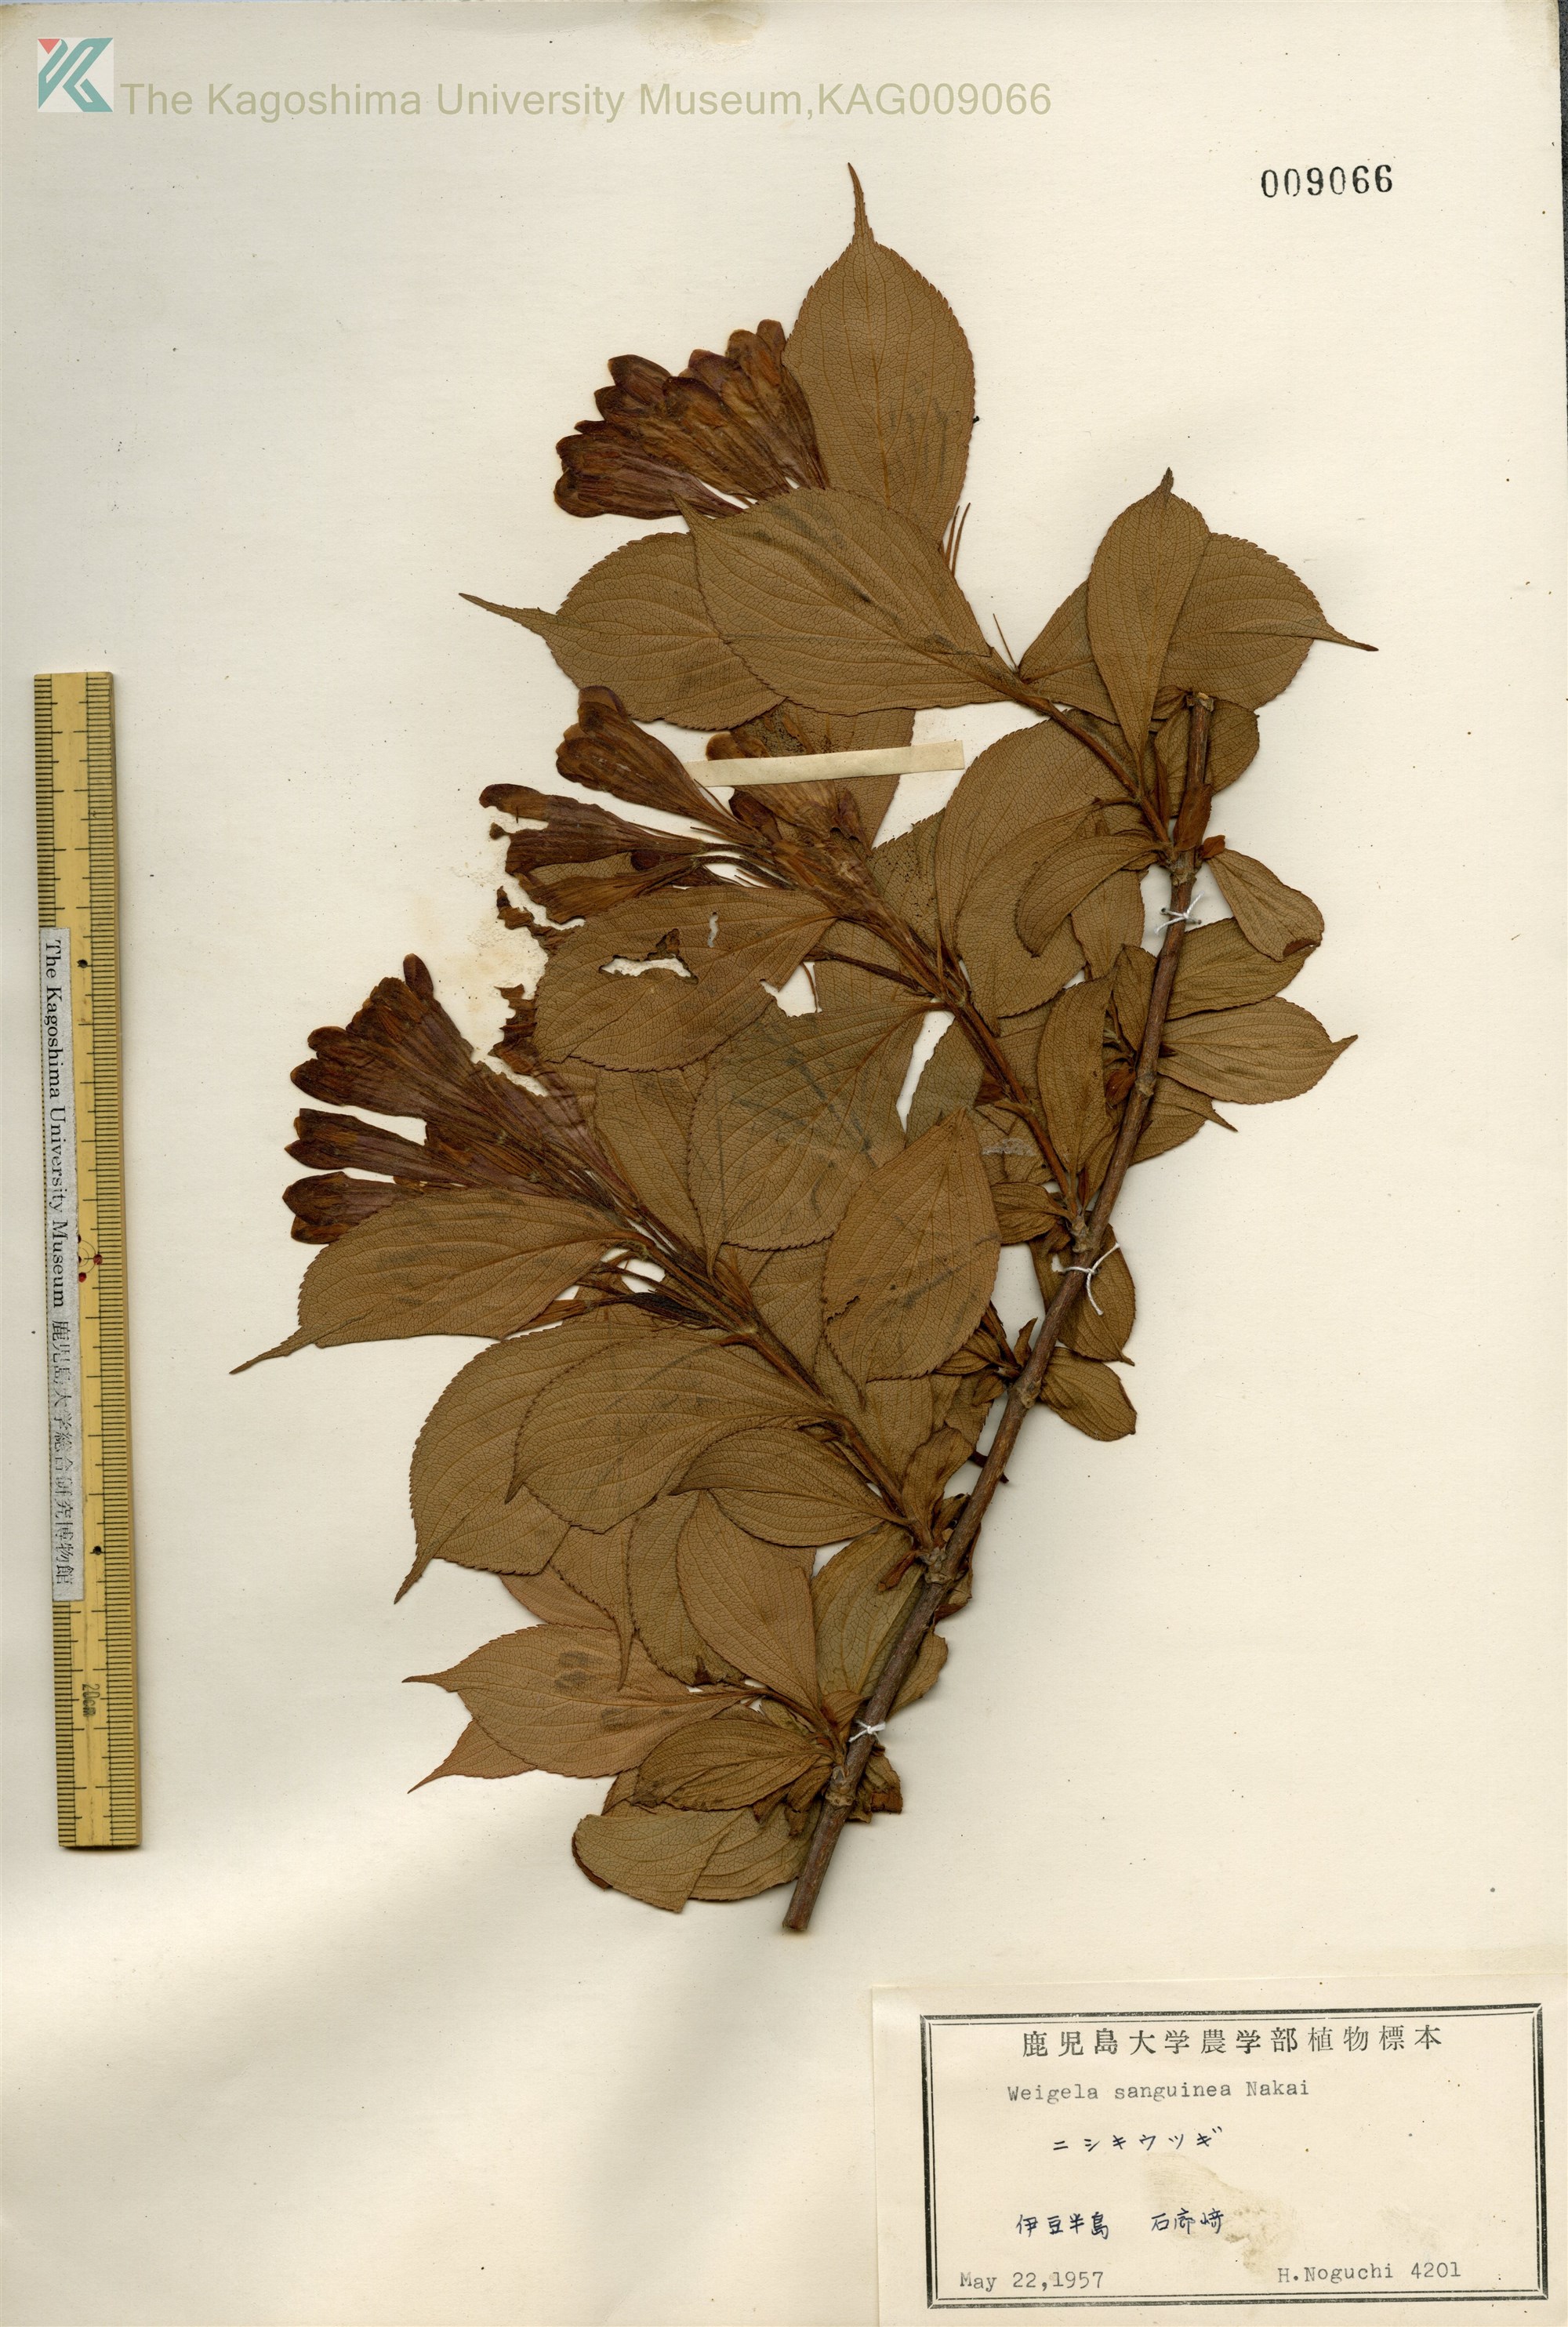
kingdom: Plantae
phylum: Tracheophyta
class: Magnoliopsida
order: Dipsacales
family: Caprifoliaceae
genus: Weigela
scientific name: Weigela
